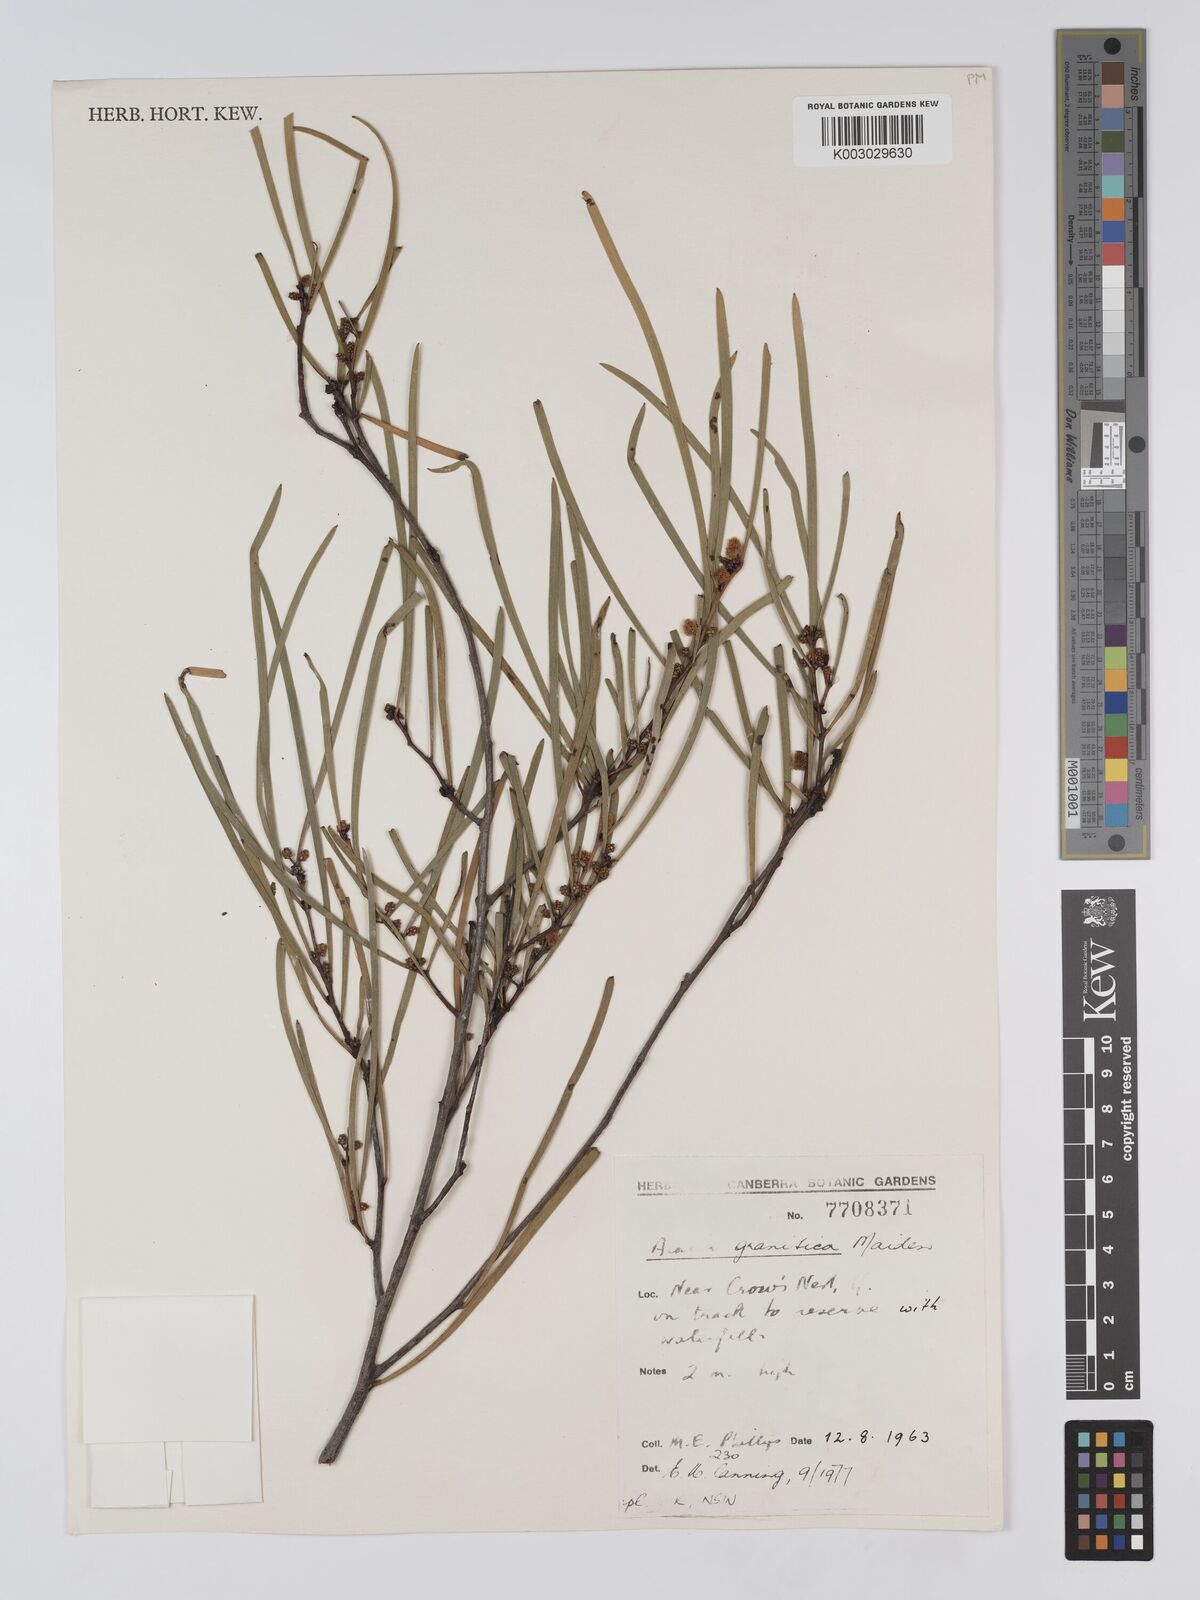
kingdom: Plantae
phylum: Tracheophyta
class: Magnoliopsida
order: Fabales
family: Fabaceae
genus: Acacia
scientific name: Acacia granitica
